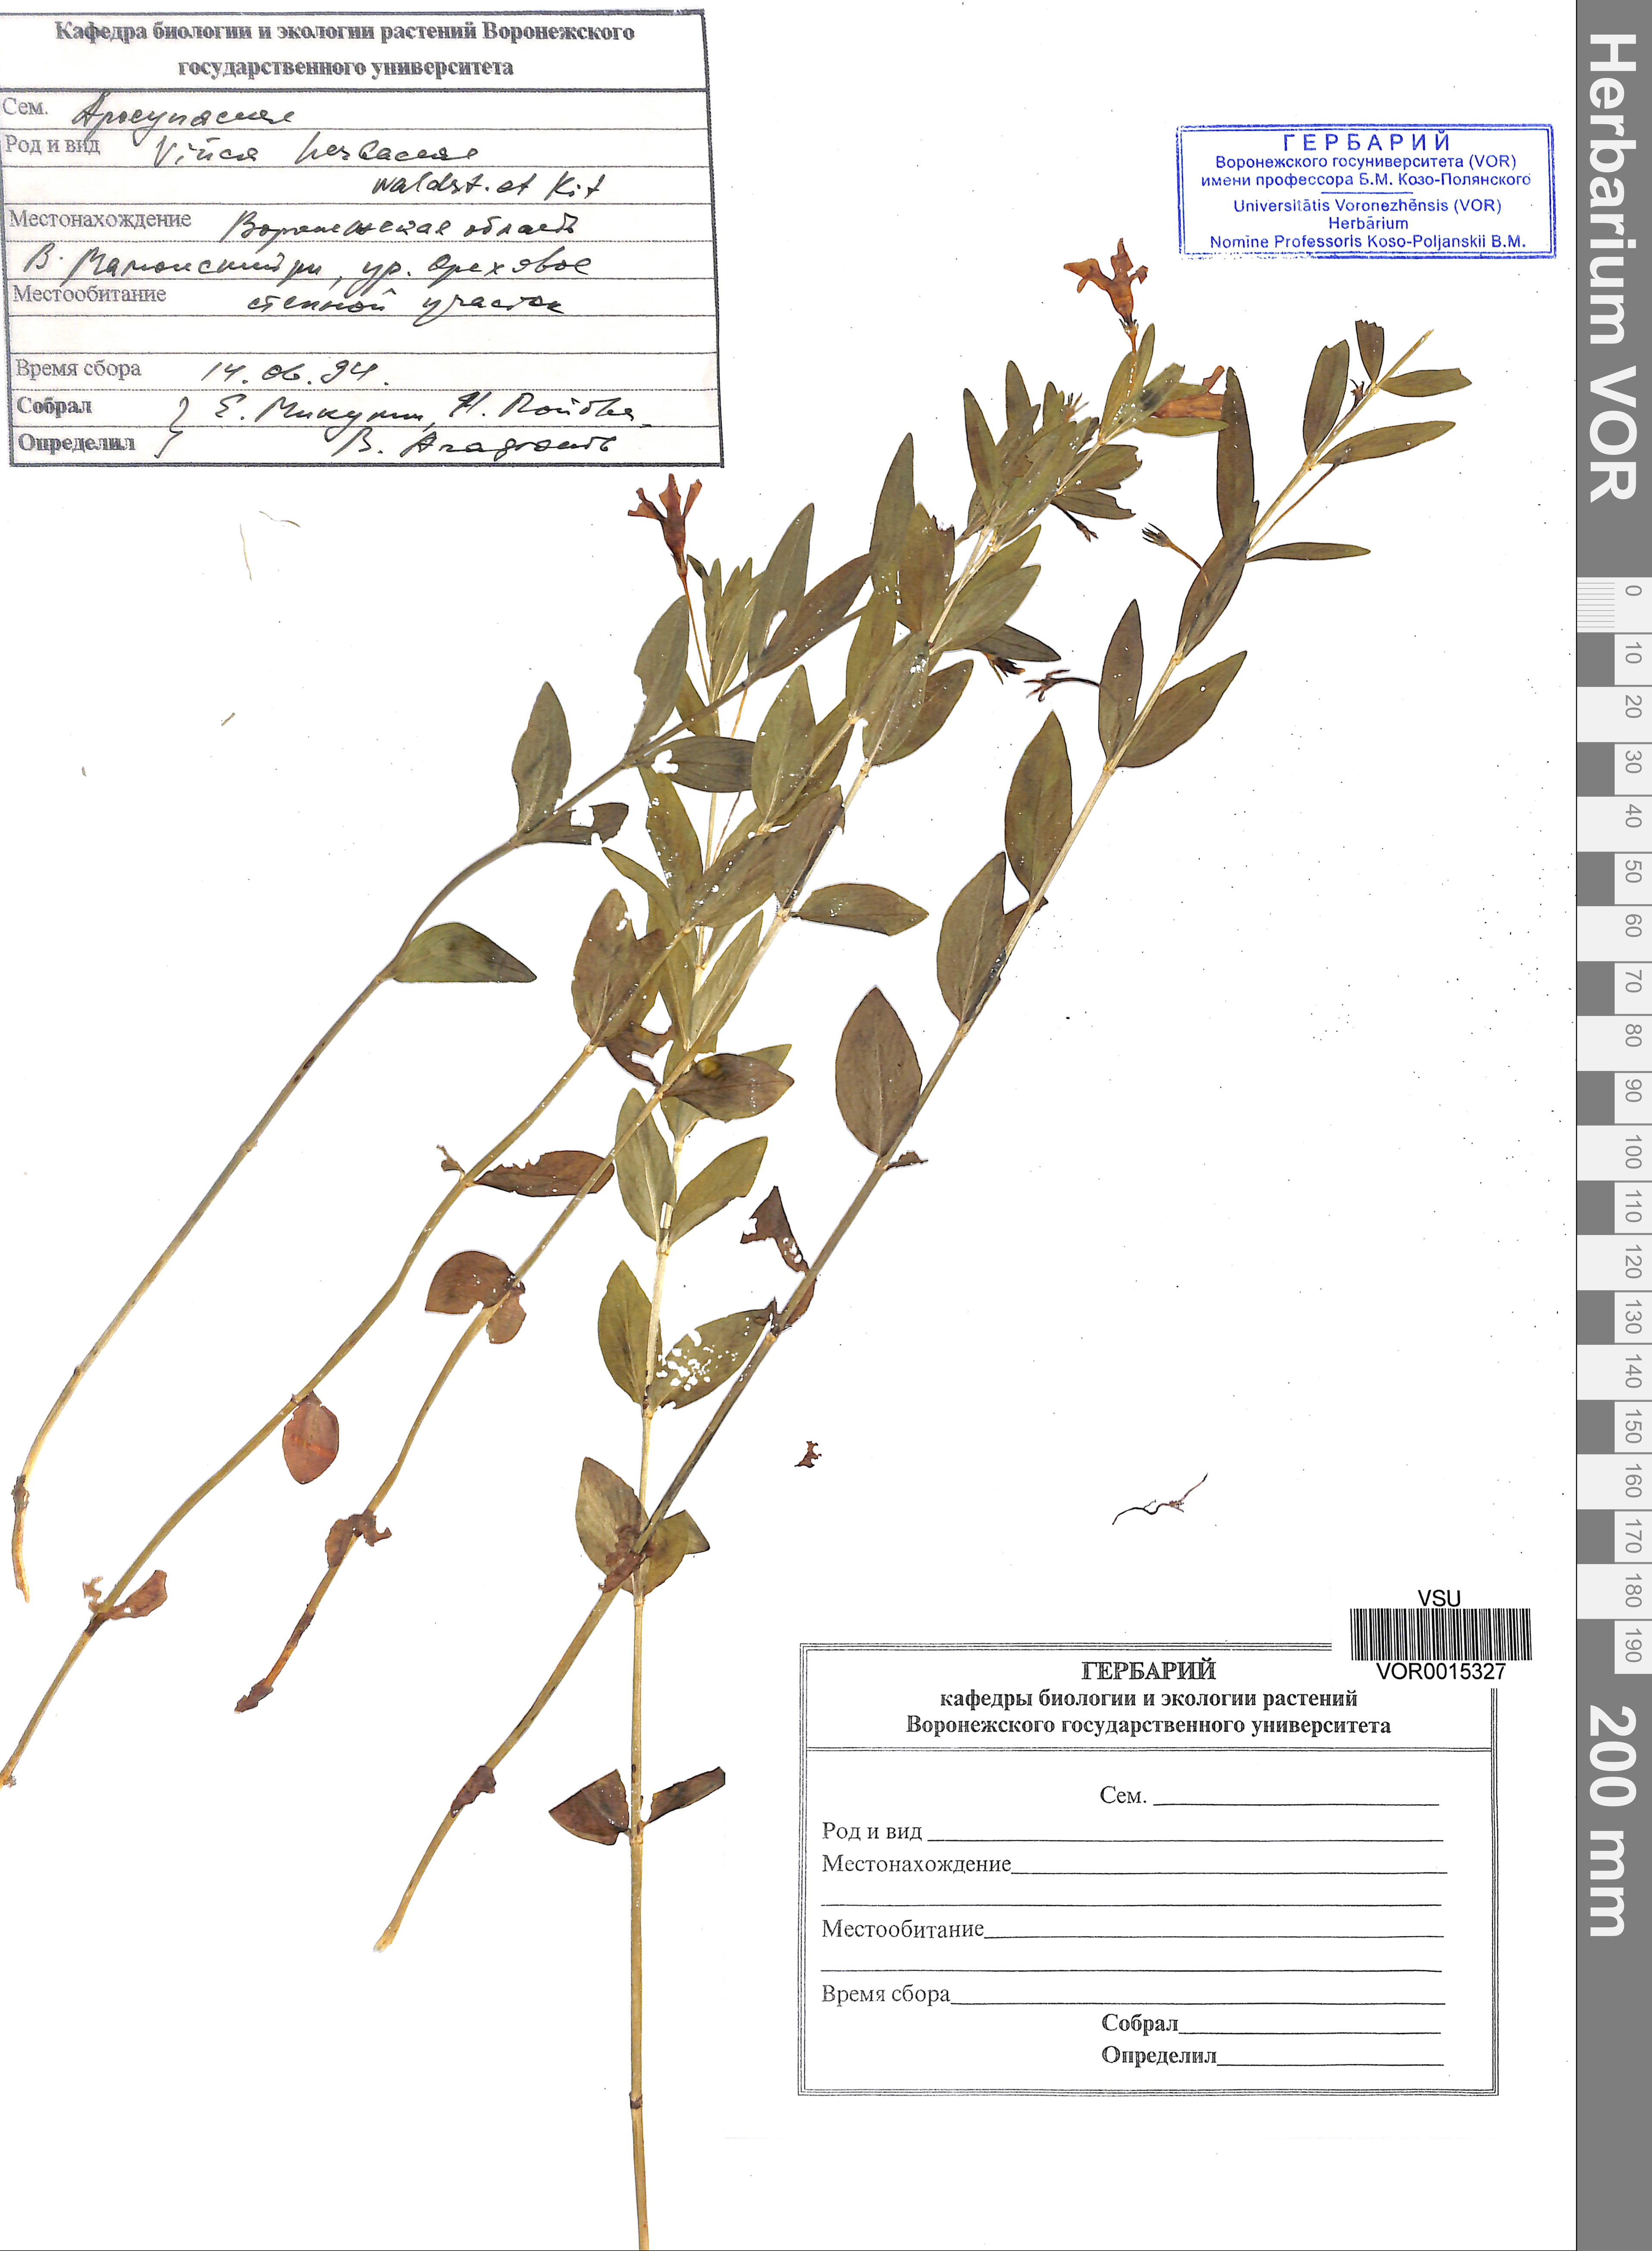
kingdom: Plantae
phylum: Tracheophyta
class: Magnoliopsida
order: Gentianales
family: Apocynaceae
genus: Vinca
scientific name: Vinca herbacea
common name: Herbaceous periwinkle
